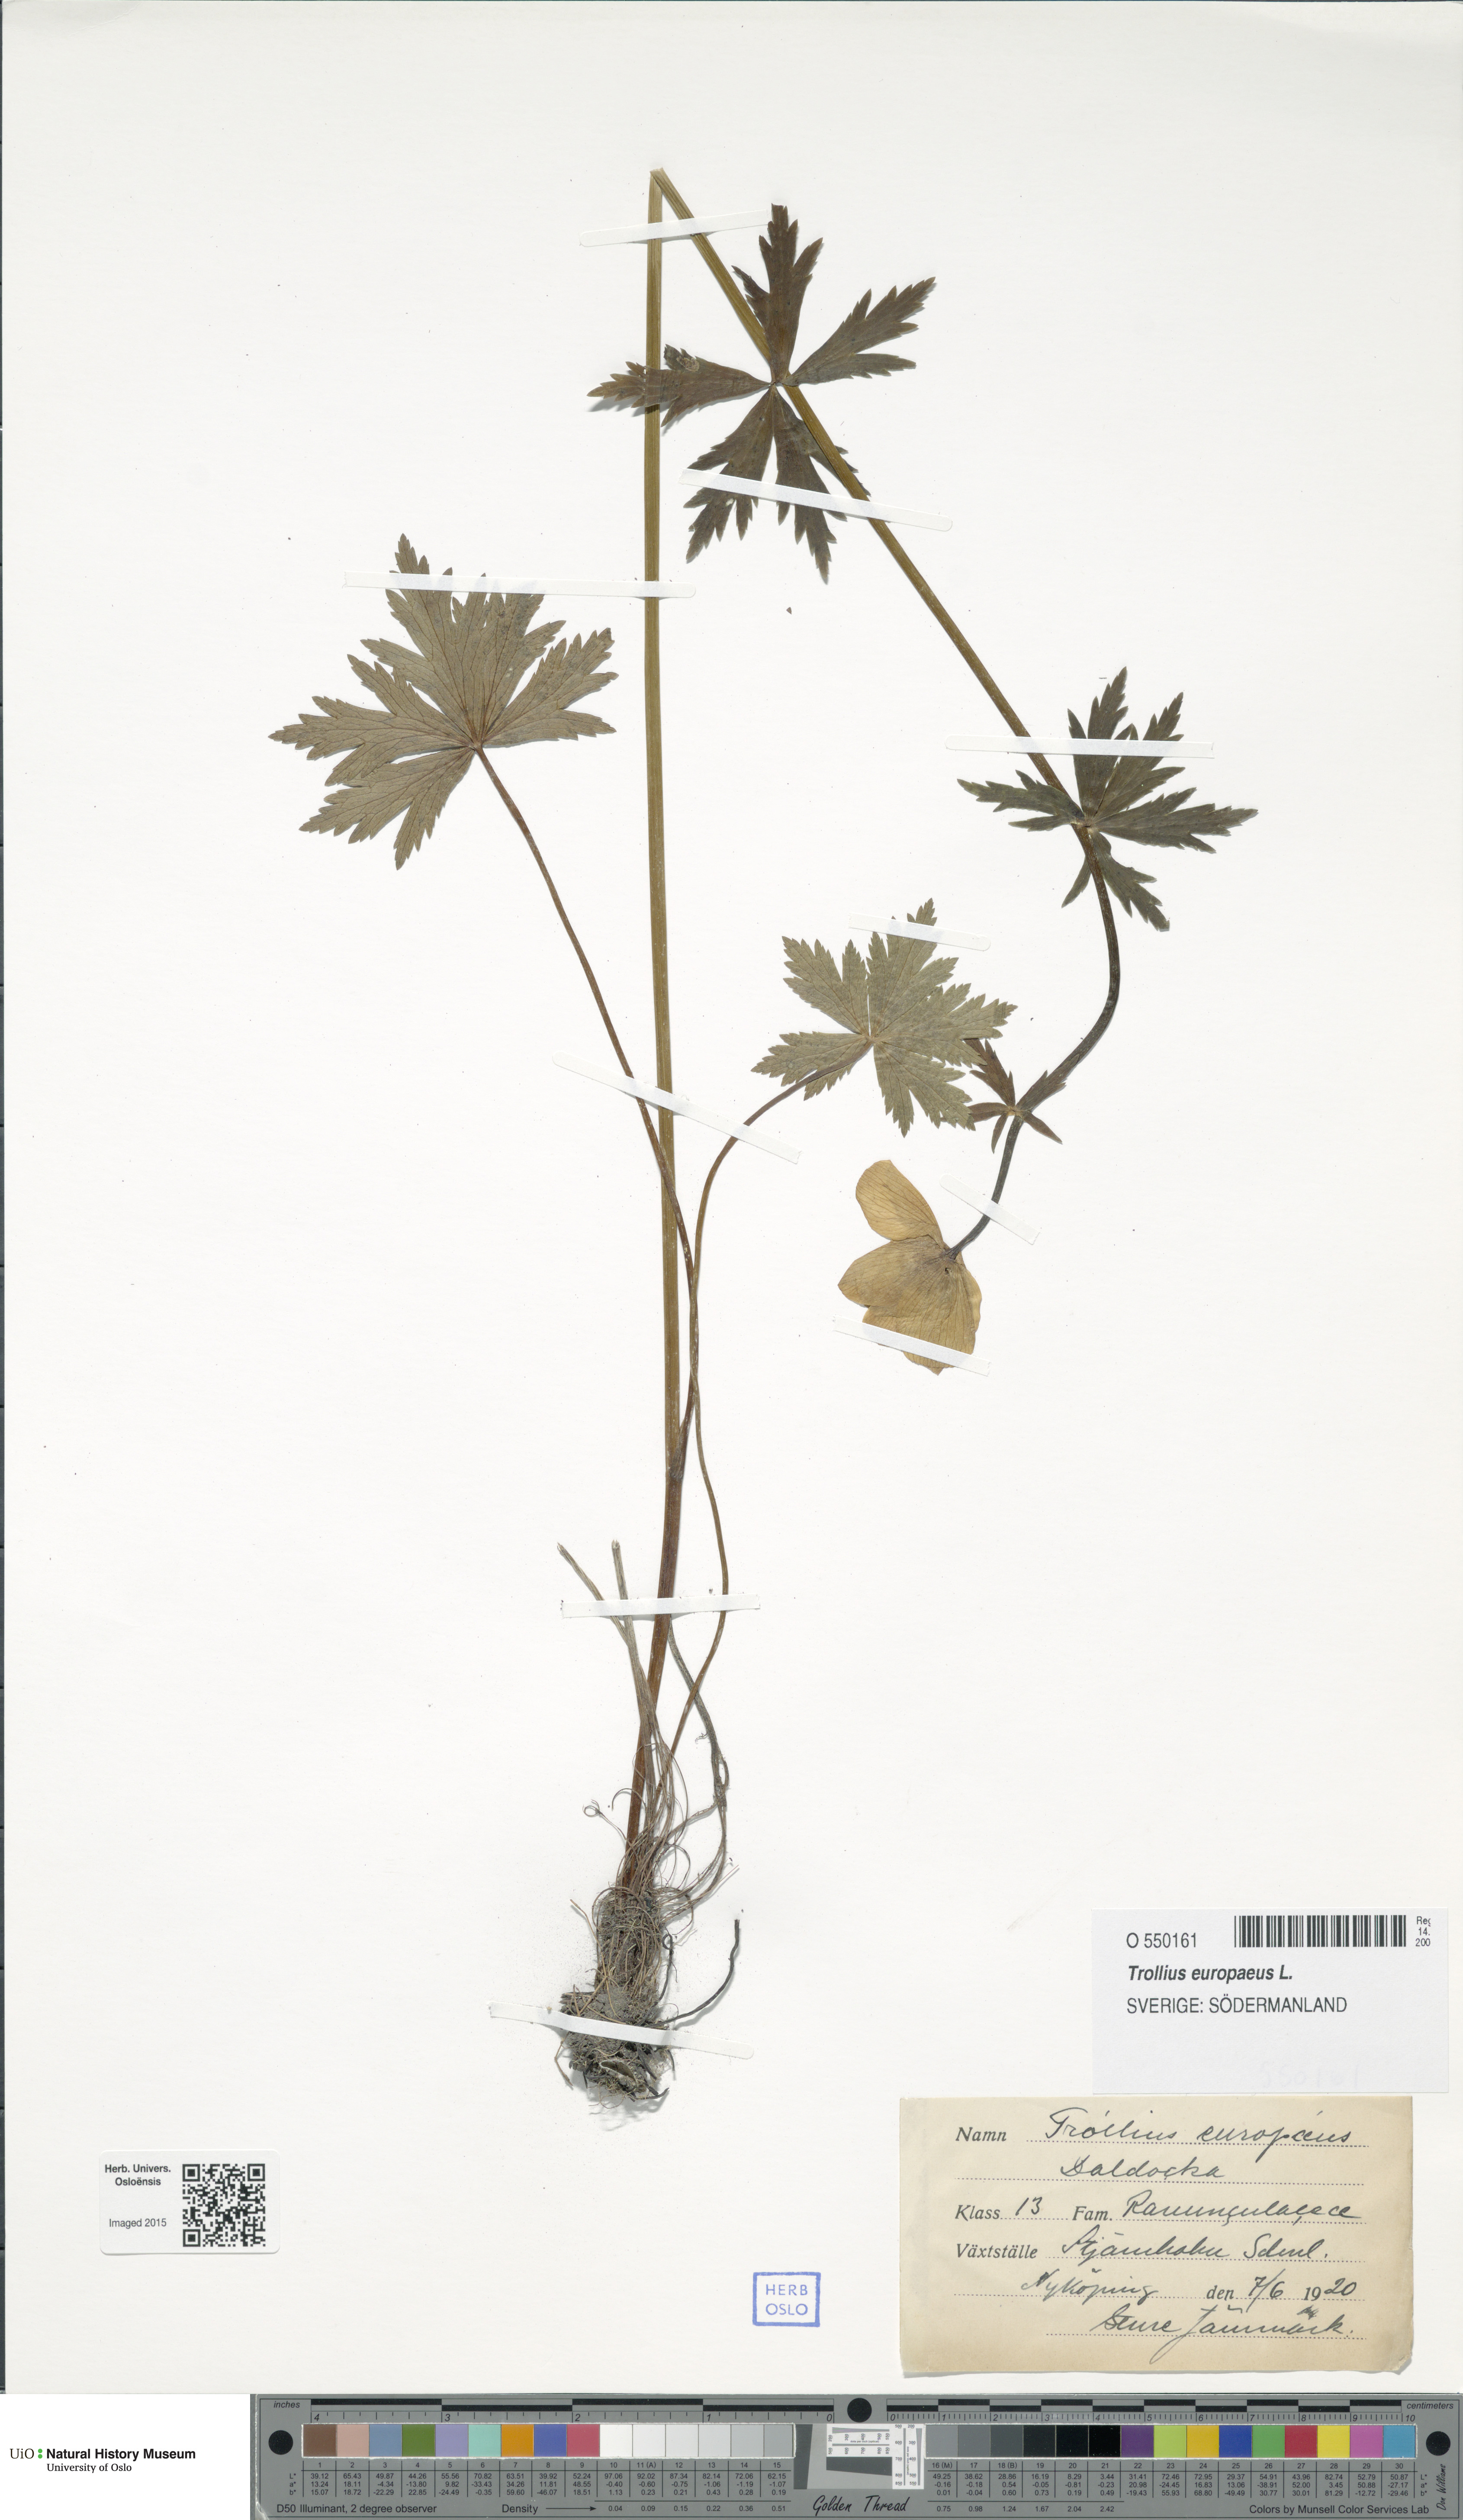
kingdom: Plantae
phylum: Tracheophyta
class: Magnoliopsida
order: Ranunculales
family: Ranunculaceae
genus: Trollius
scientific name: Trollius europaeus
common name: European globeflower
